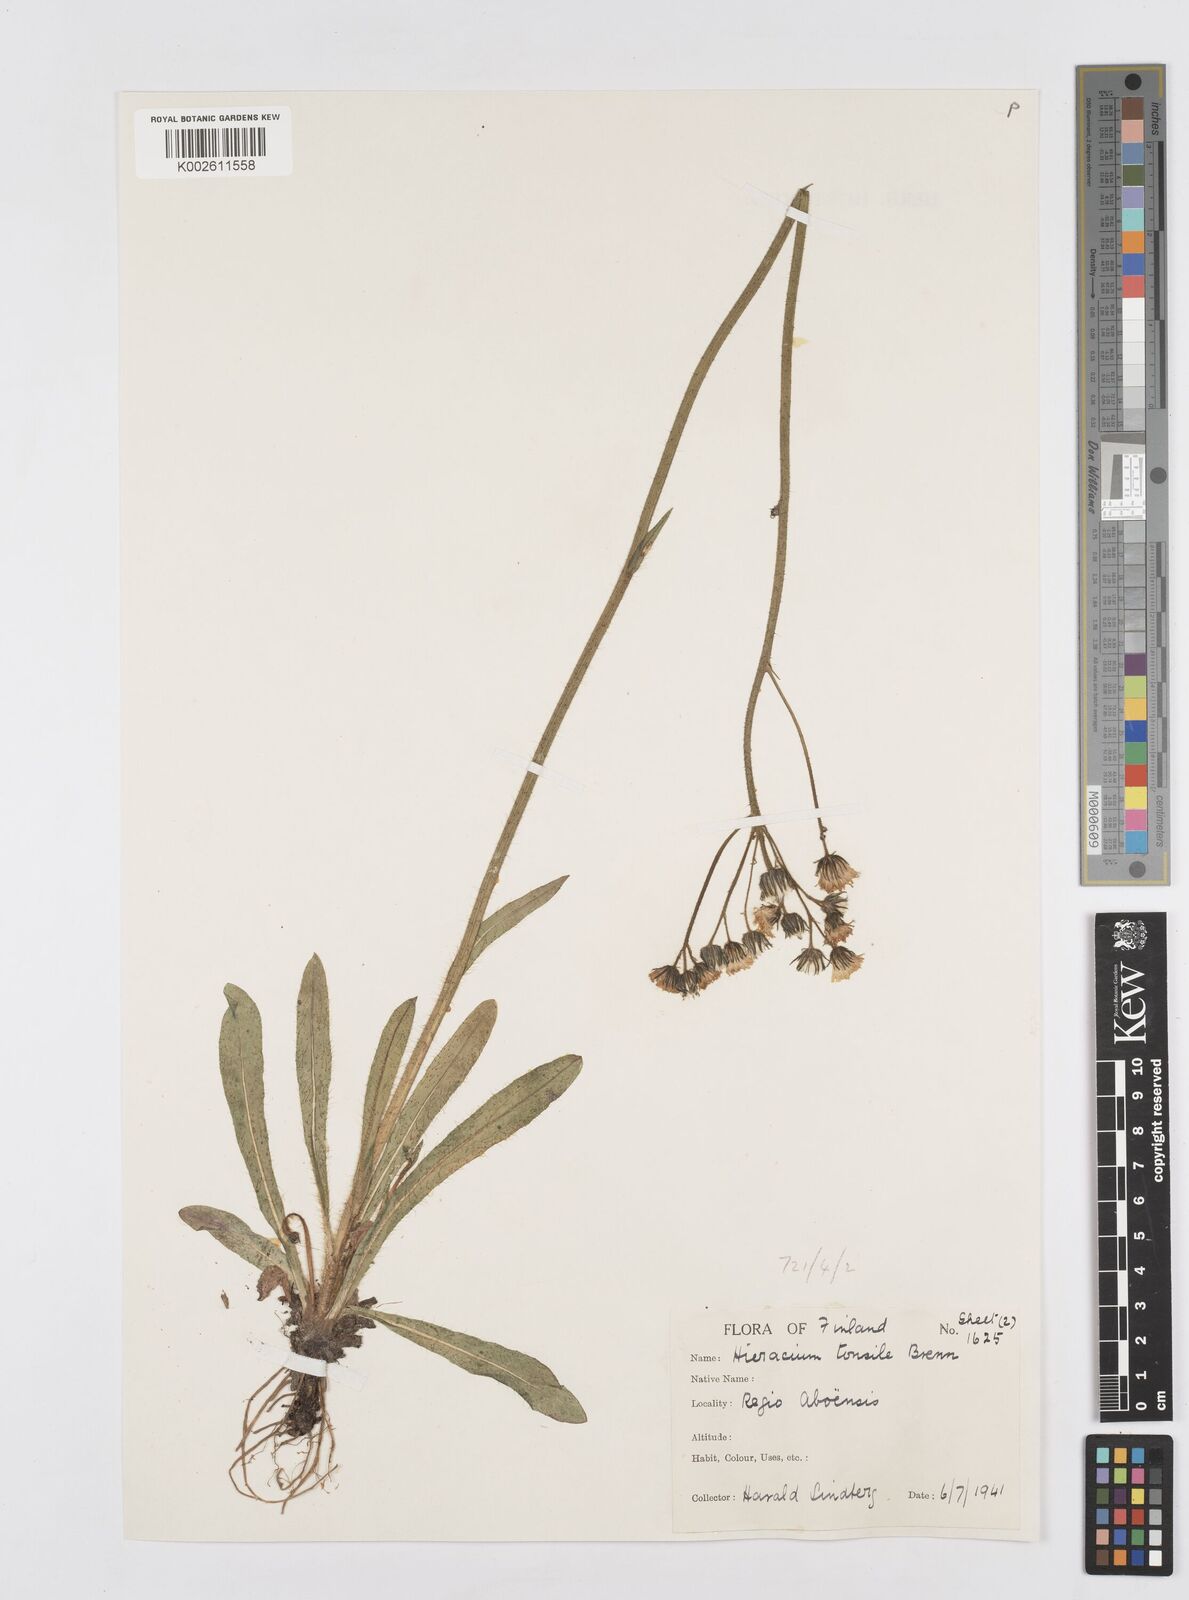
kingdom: Plantae
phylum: Tracheophyta
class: Magnoliopsida
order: Asterales
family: Asteraceae
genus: Pilosella
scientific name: Pilosella erythrochrista
